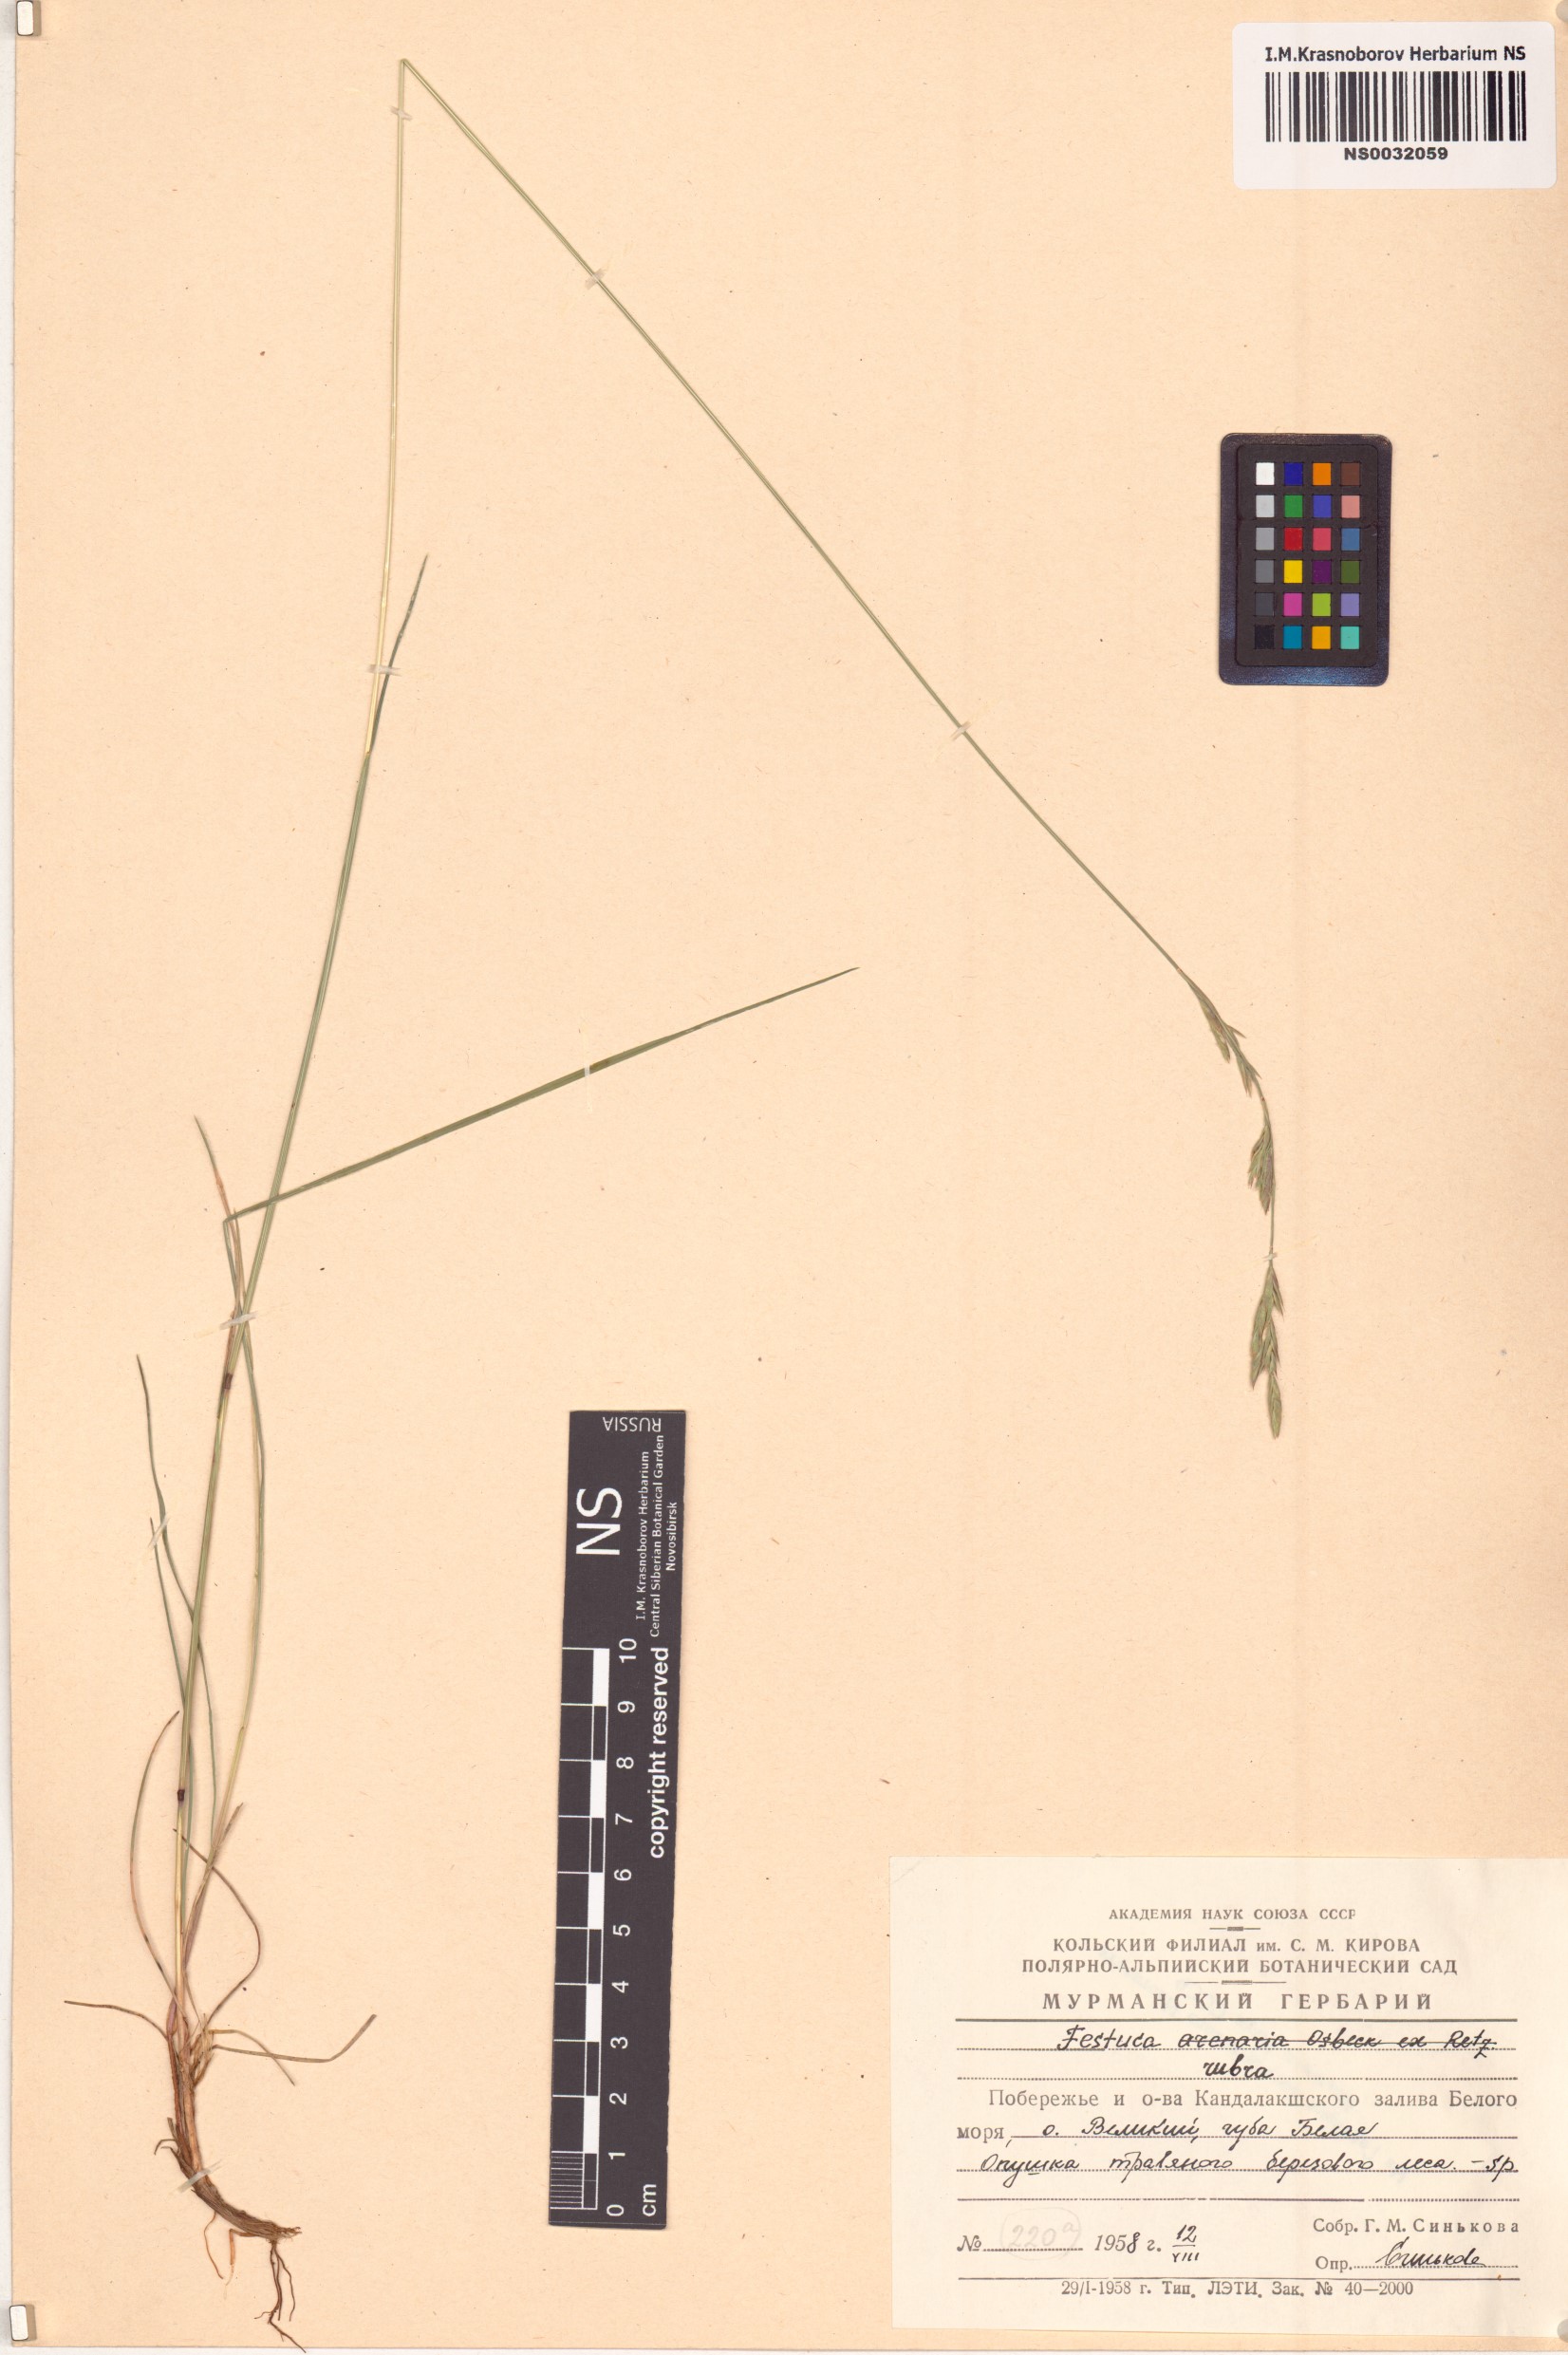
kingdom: Plantae
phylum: Tracheophyta
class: Liliopsida
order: Poales
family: Poaceae
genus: Festuca
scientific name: Festuca rubra
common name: Red fescue
